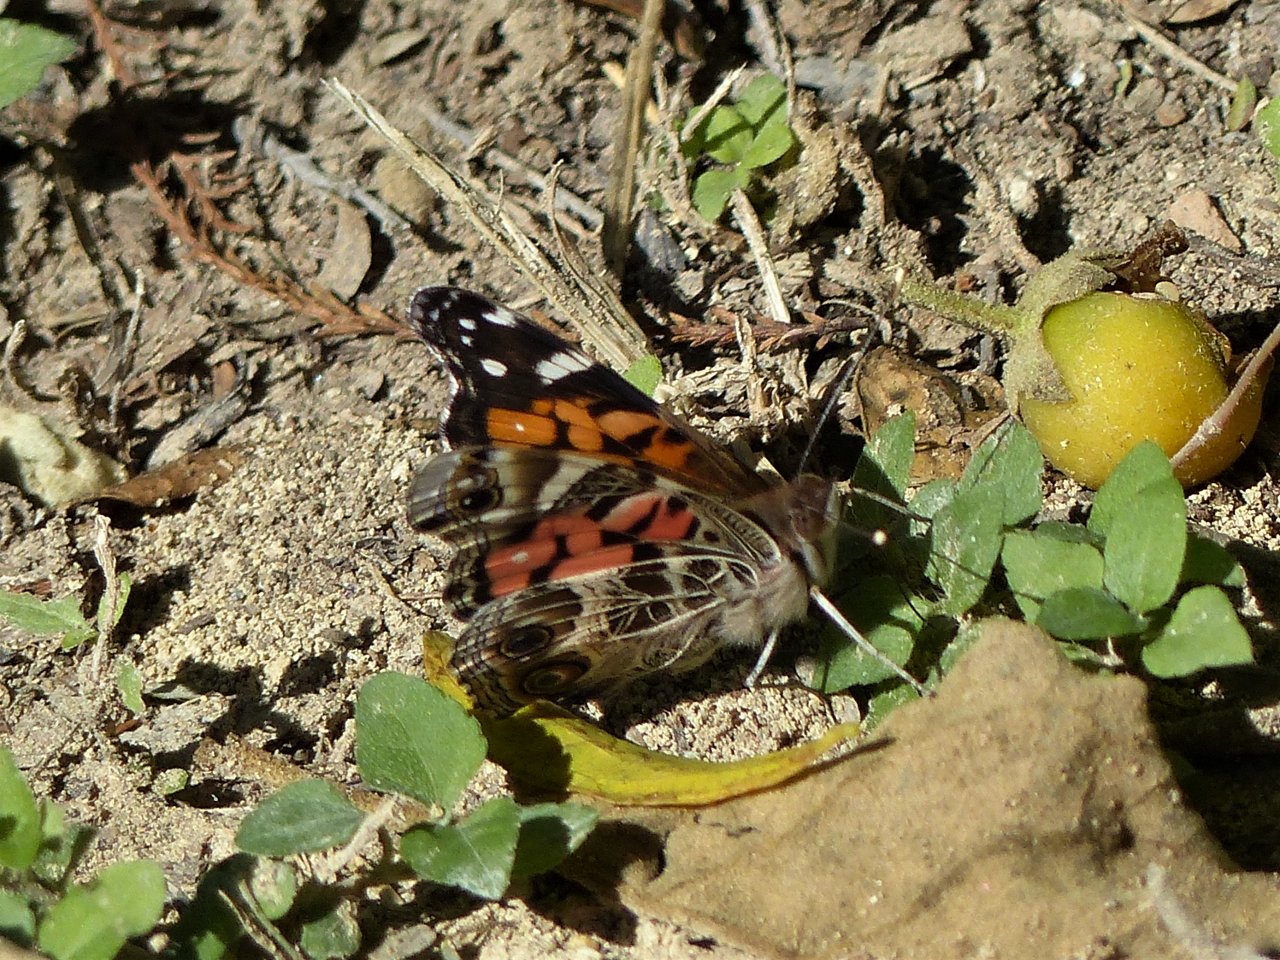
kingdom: Animalia
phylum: Arthropoda
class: Insecta
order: Lepidoptera
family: Nymphalidae
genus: Vanessa
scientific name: Vanessa virginiensis
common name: American Lady
